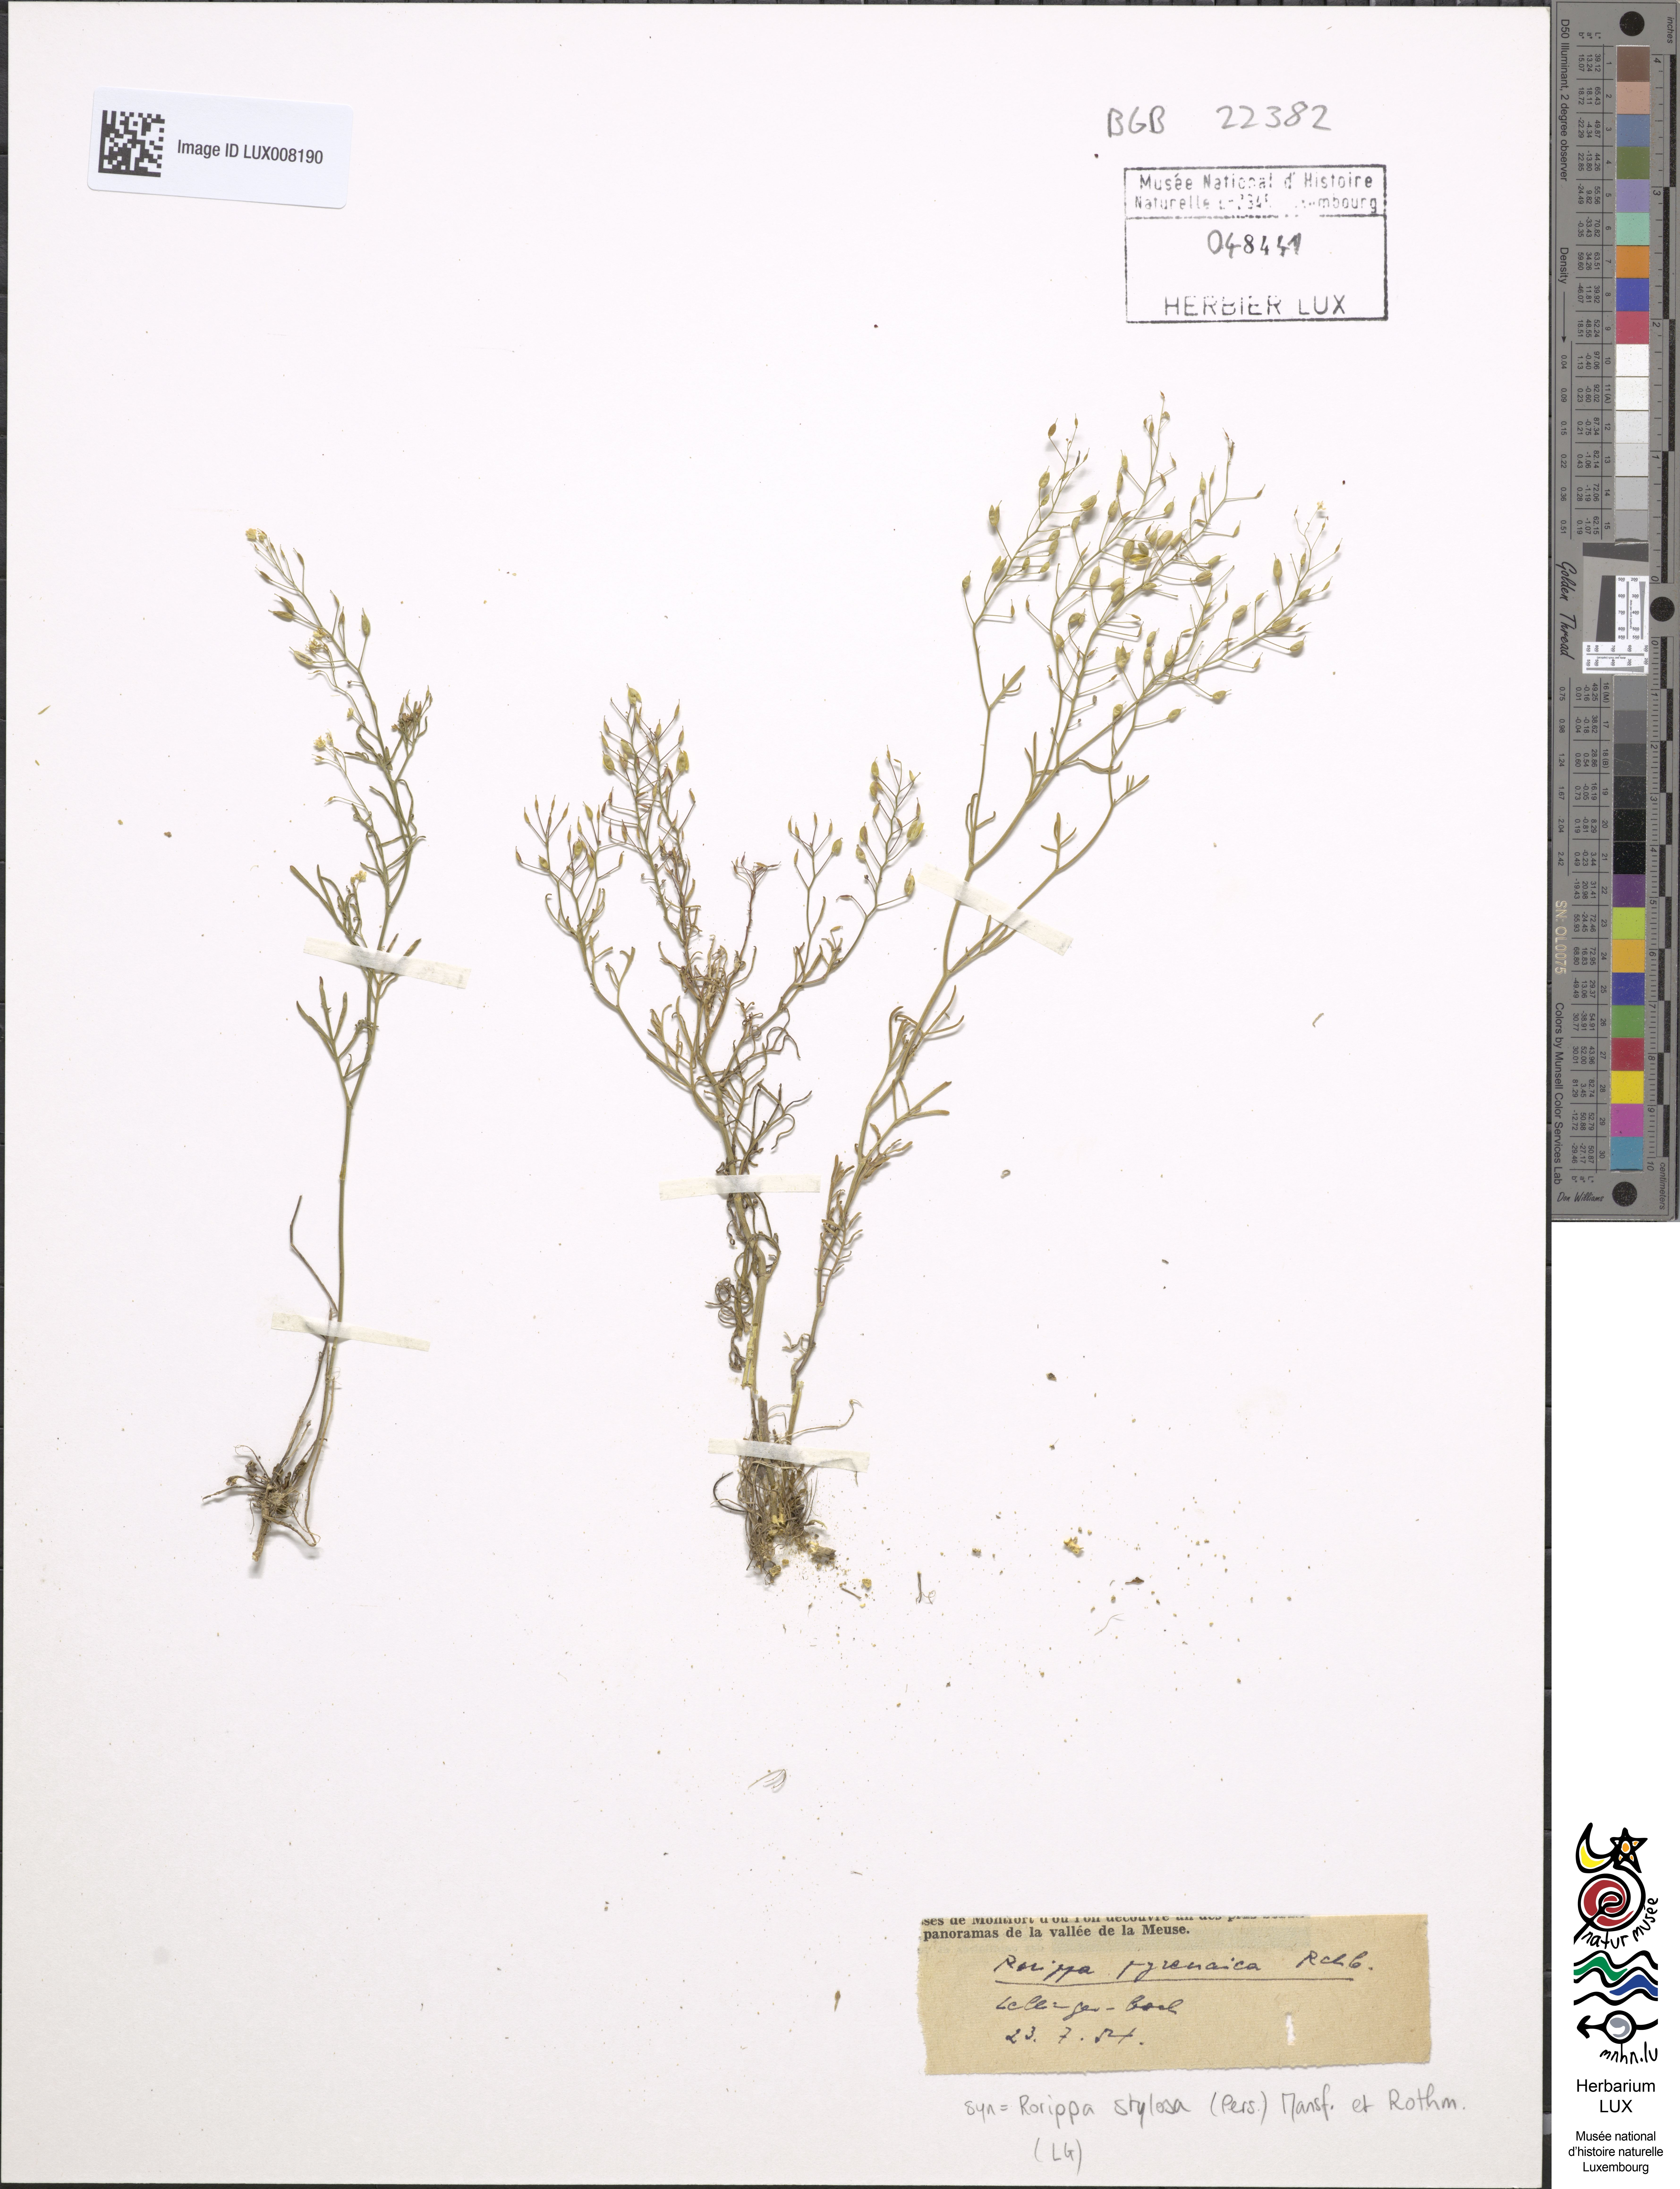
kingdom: Plantae
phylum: Tracheophyta
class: Magnoliopsida
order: Brassicales
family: Brassicaceae
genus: Rorippa
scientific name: Rorippa pyrenaica
